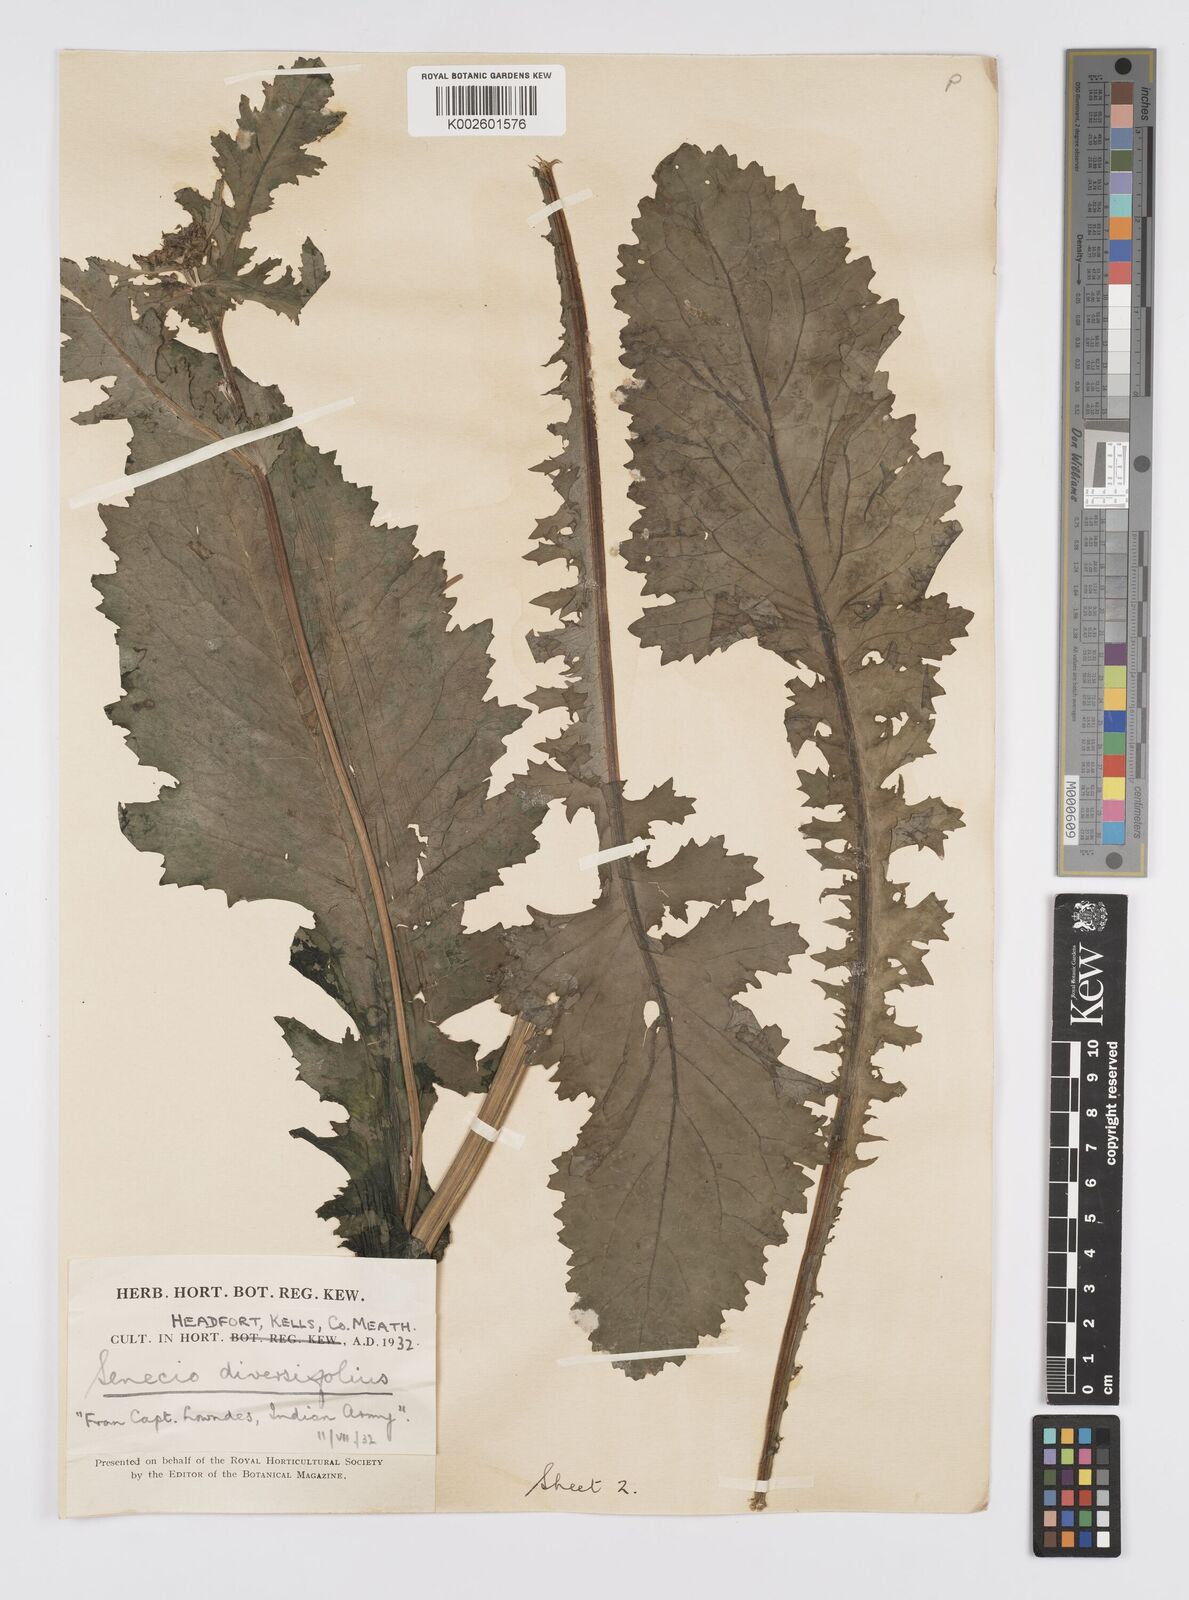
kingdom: Plantae
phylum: Tracheophyta
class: Magnoliopsida
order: Asterales
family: Asteraceae
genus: Jacobaea
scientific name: Jacobaea raphanifolia
